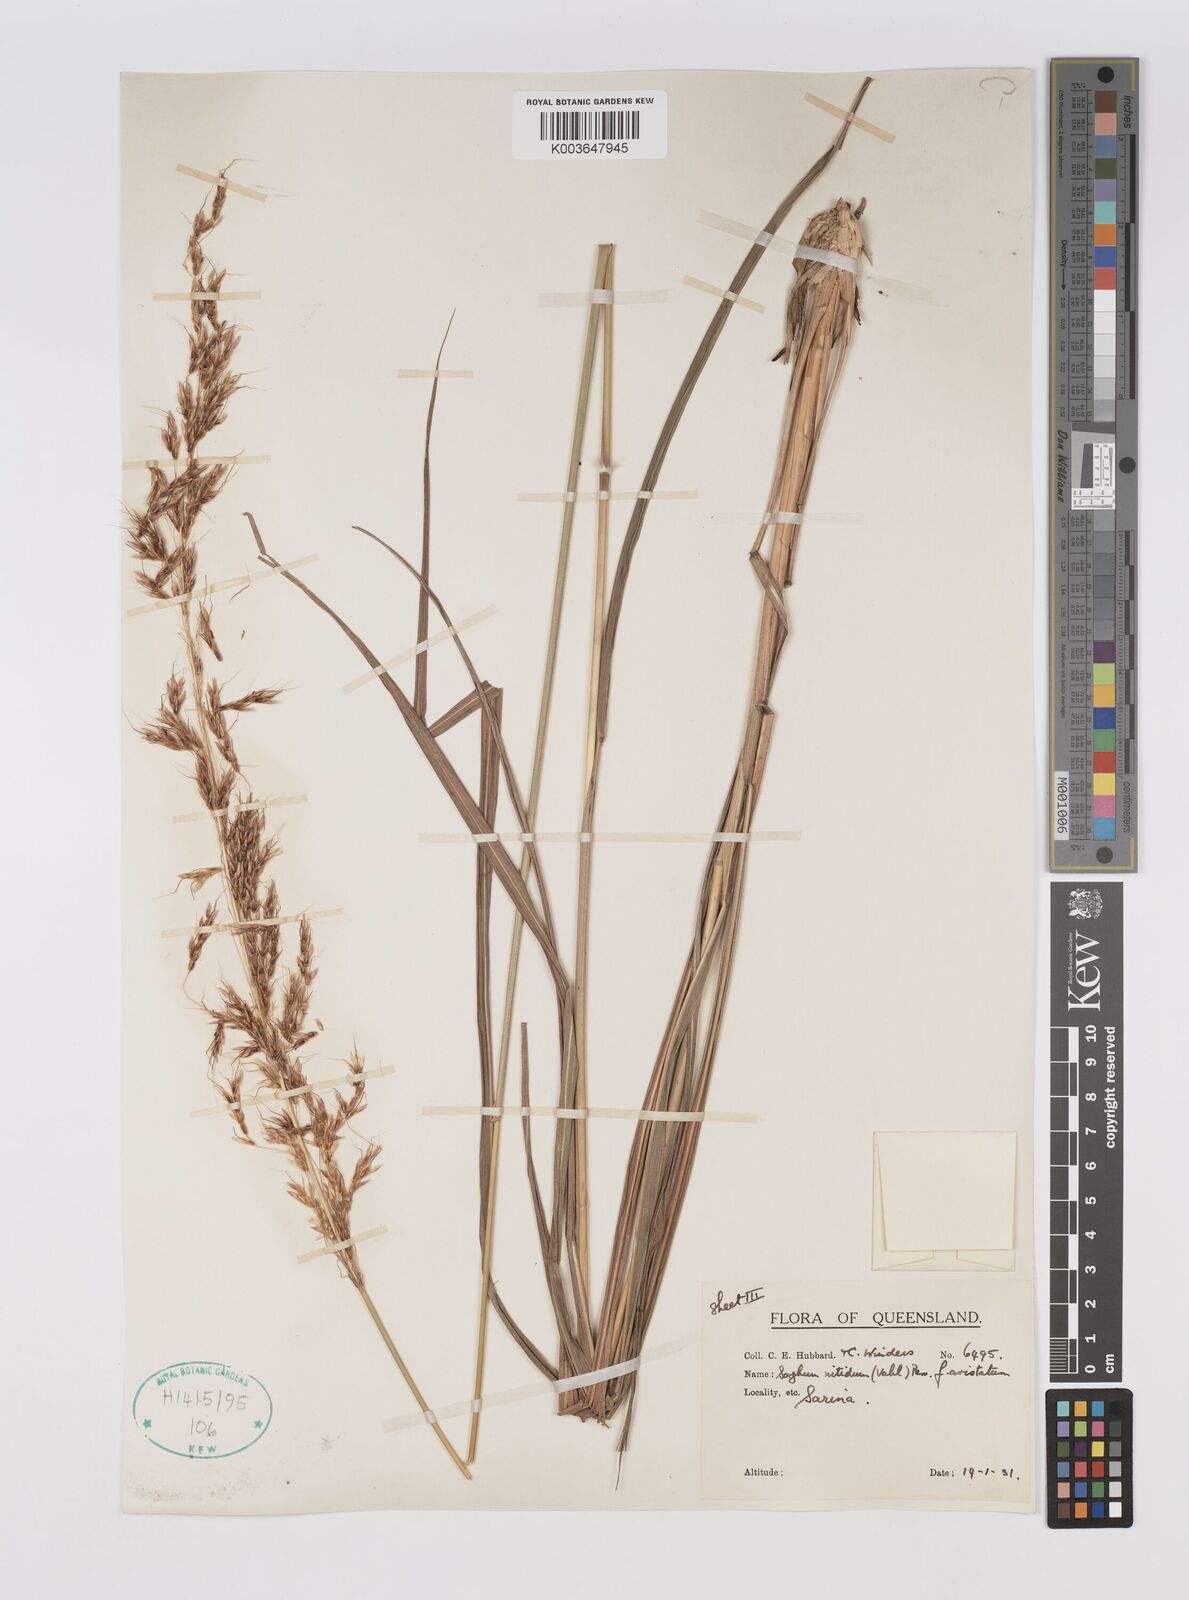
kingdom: Plantae
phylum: Tracheophyta
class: Liliopsida
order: Poales
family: Poaceae
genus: Sorghum
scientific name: Sorghum nitidum
